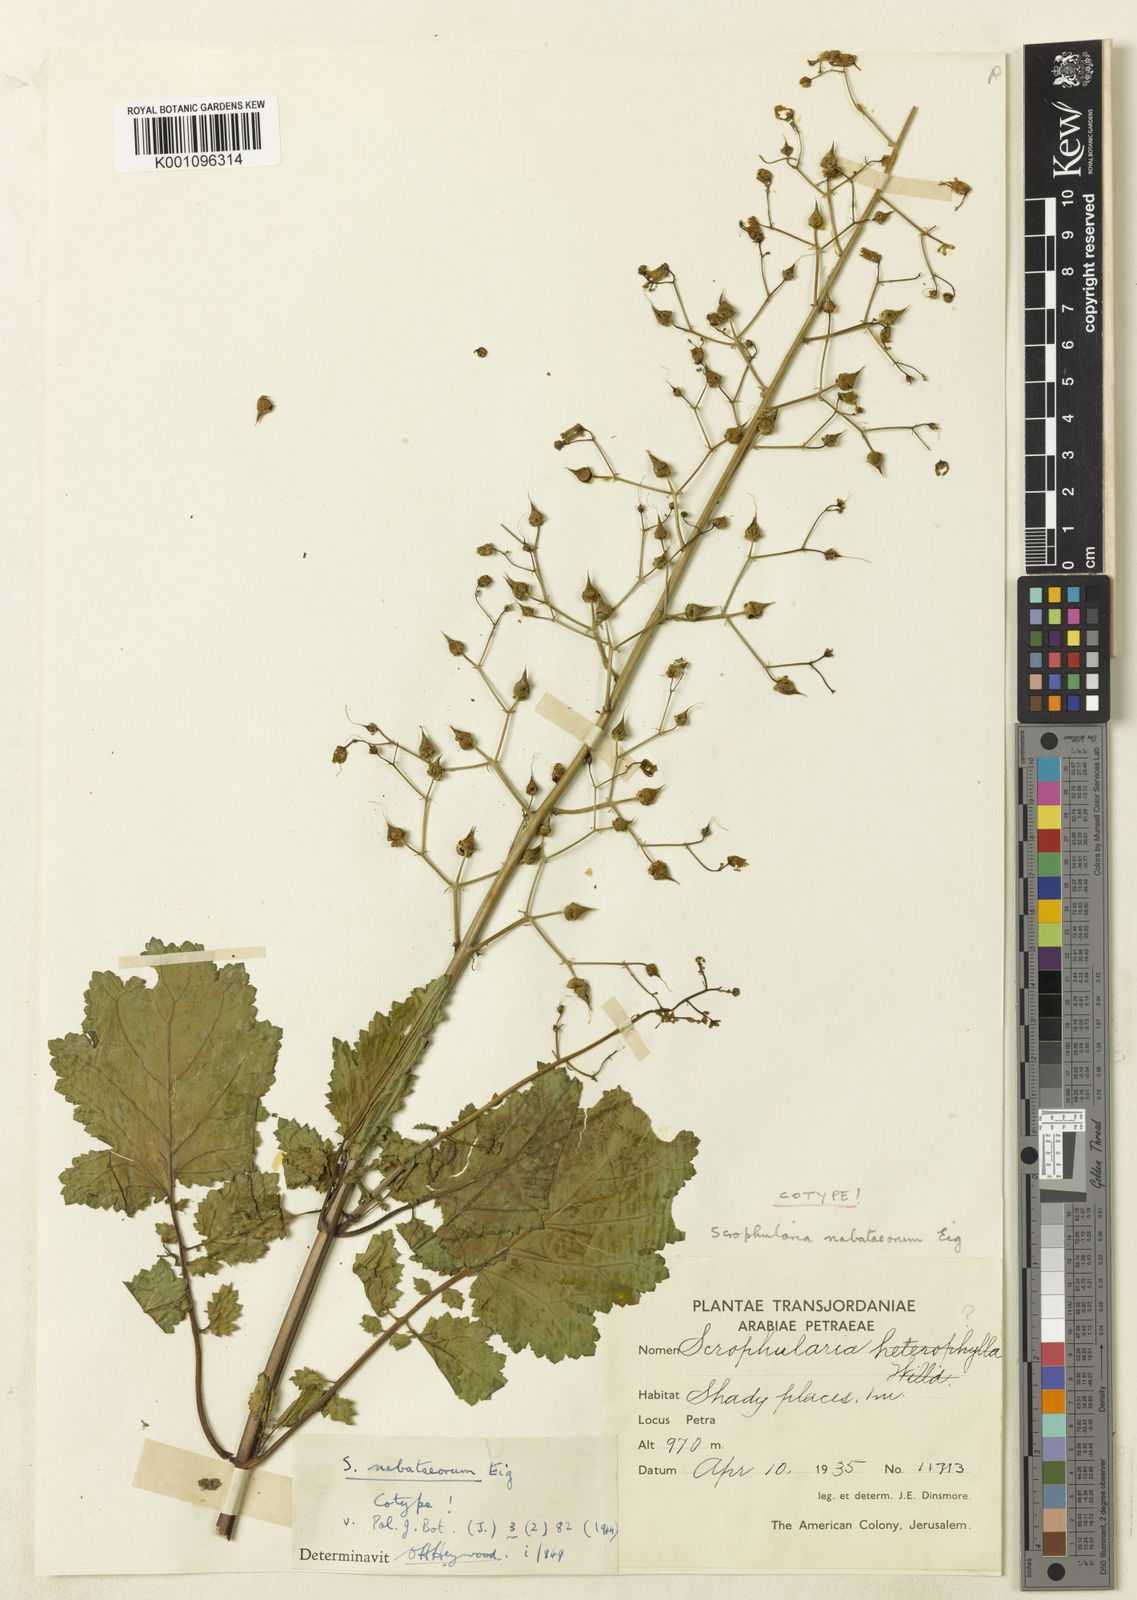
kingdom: Plantae
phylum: Tracheophyta
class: Magnoliopsida
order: Lamiales
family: Scrophulariaceae
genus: Scrophularia
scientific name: Scrophularia nabataeorum
